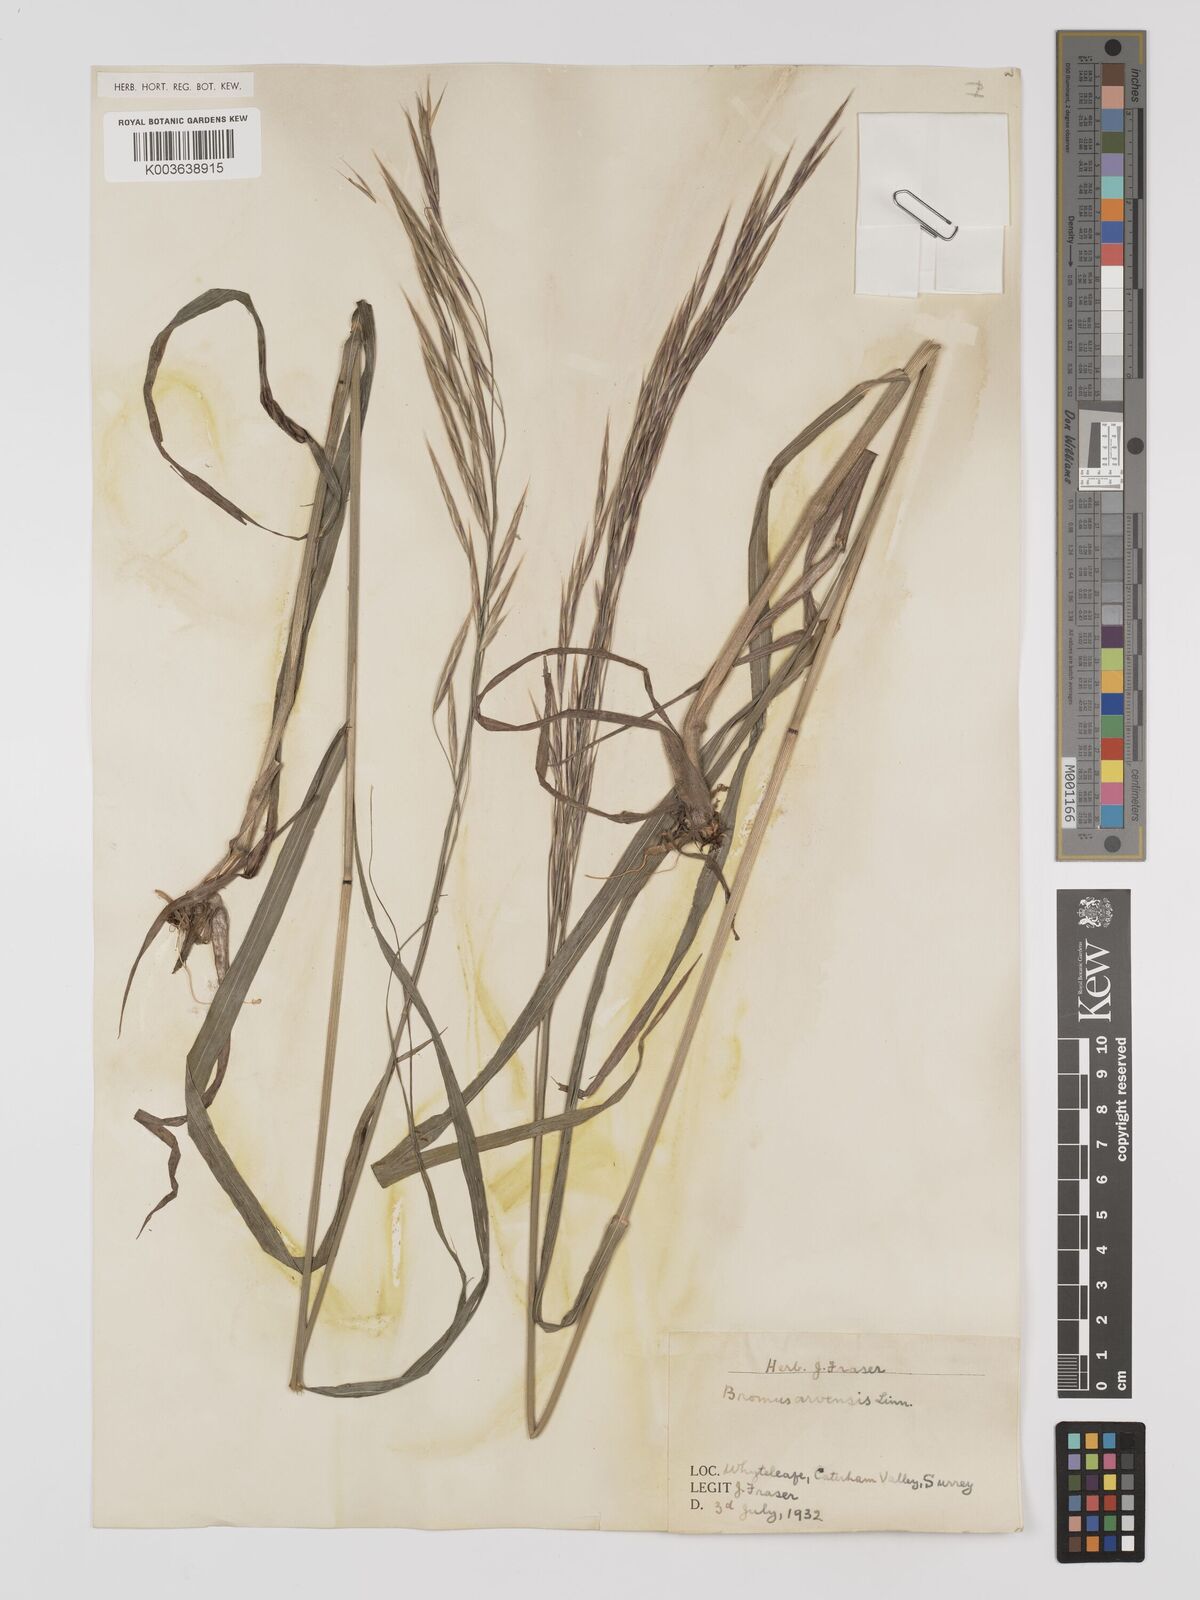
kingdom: Plantae
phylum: Tracheophyta
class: Liliopsida
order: Poales
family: Poaceae
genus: Bromus
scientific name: Bromus ramosus
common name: Hairy brome
